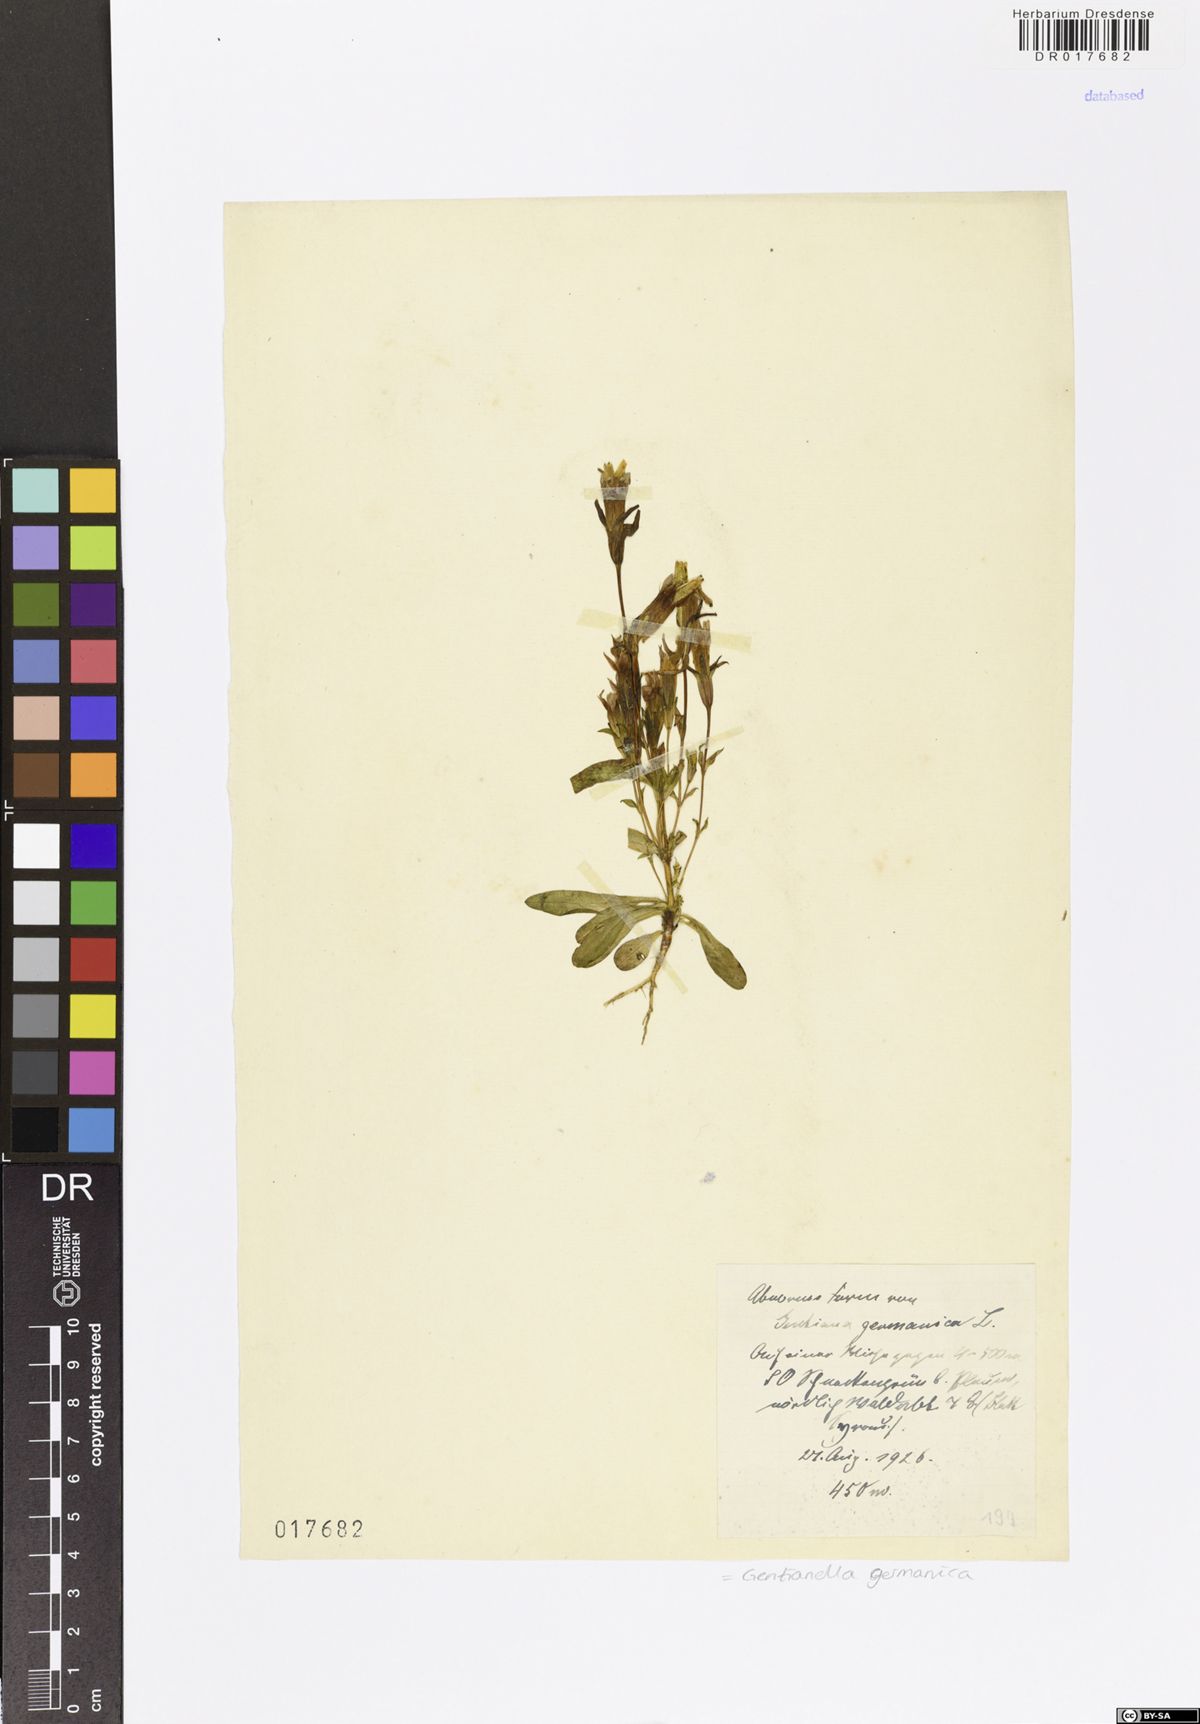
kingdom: Plantae
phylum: Tracheophyta
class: Magnoliopsida
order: Gentianales
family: Gentianaceae
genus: Gentianella
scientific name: Gentianella germanica
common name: Chiltern-gentian
